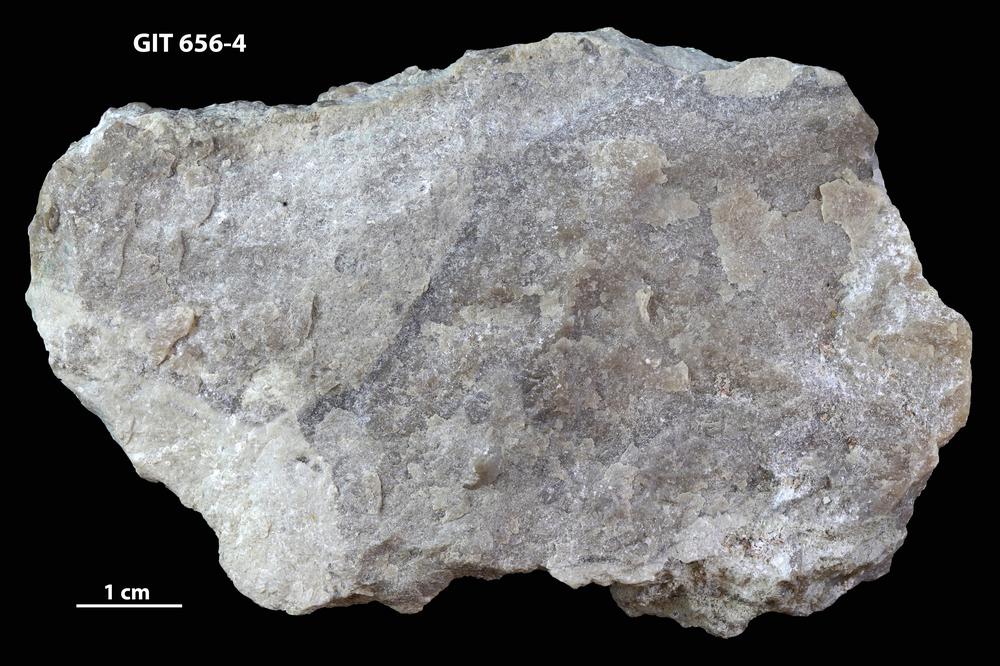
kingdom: Animalia
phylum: Porifera
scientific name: Porifera
